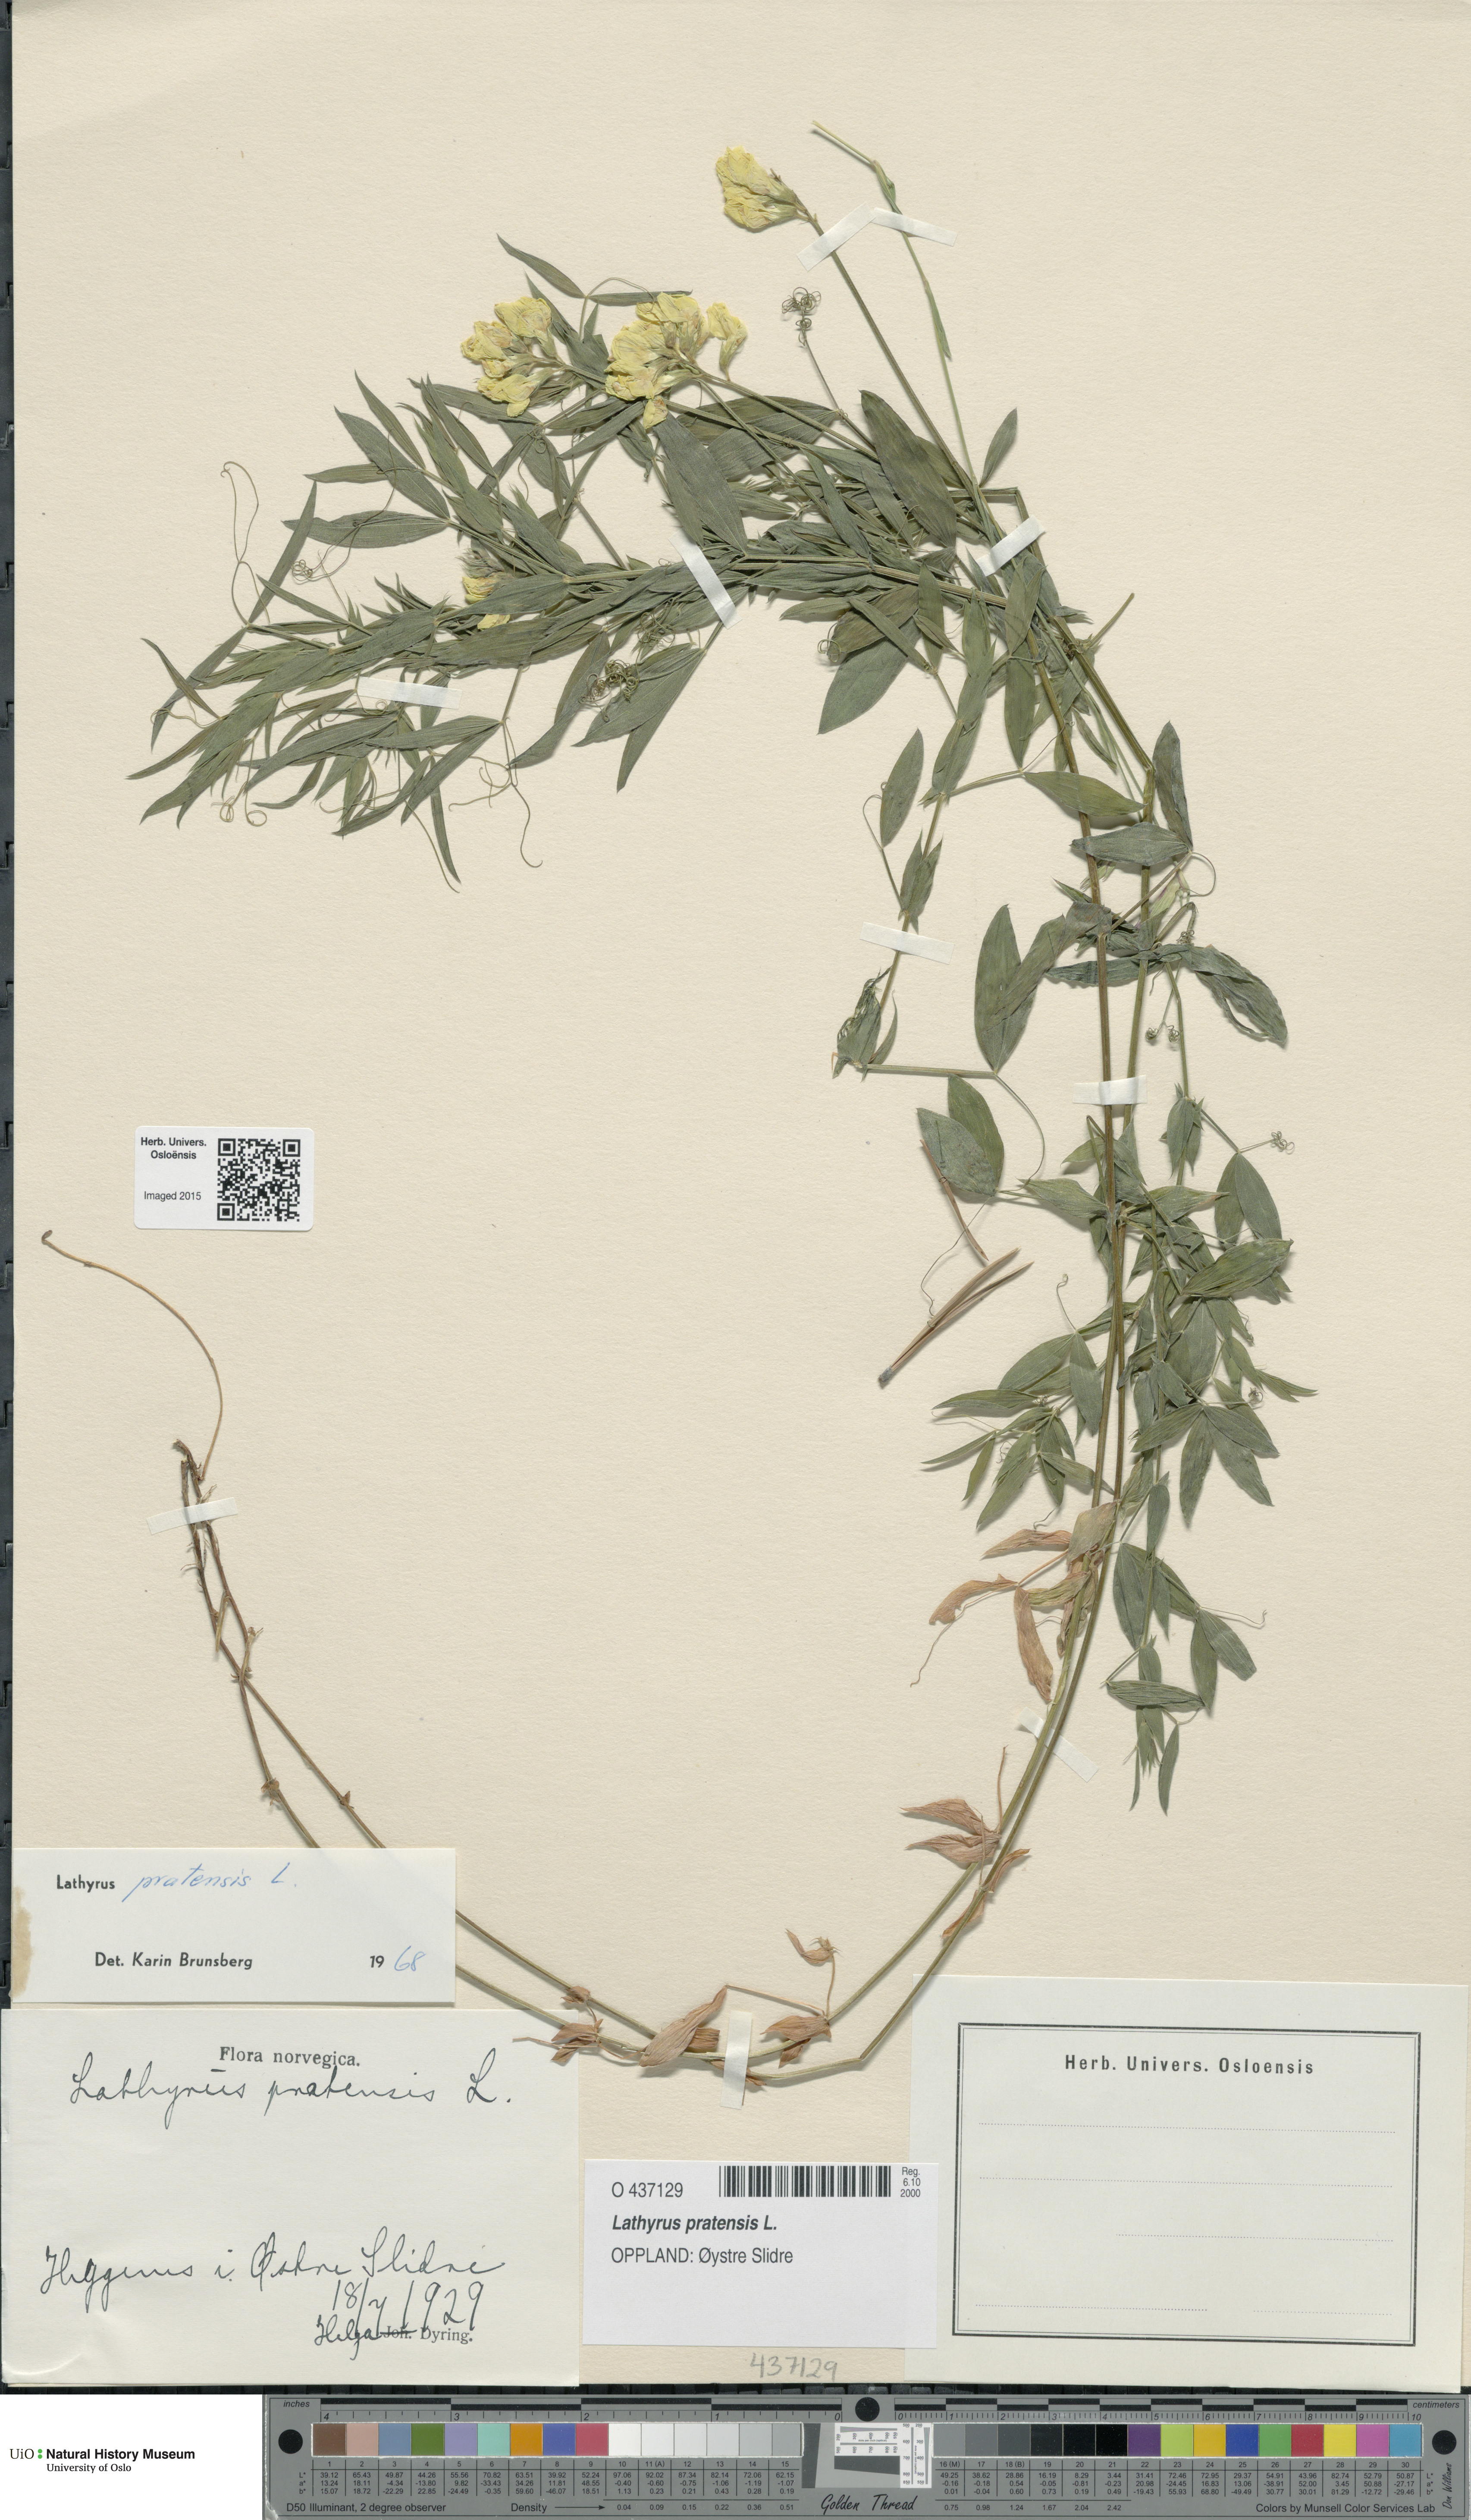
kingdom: Plantae
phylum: Tracheophyta
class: Magnoliopsida
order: Fabales
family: Fabaceae
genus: Lathyrus
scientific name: Lathyrus pratensis
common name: Meadow vetchling
